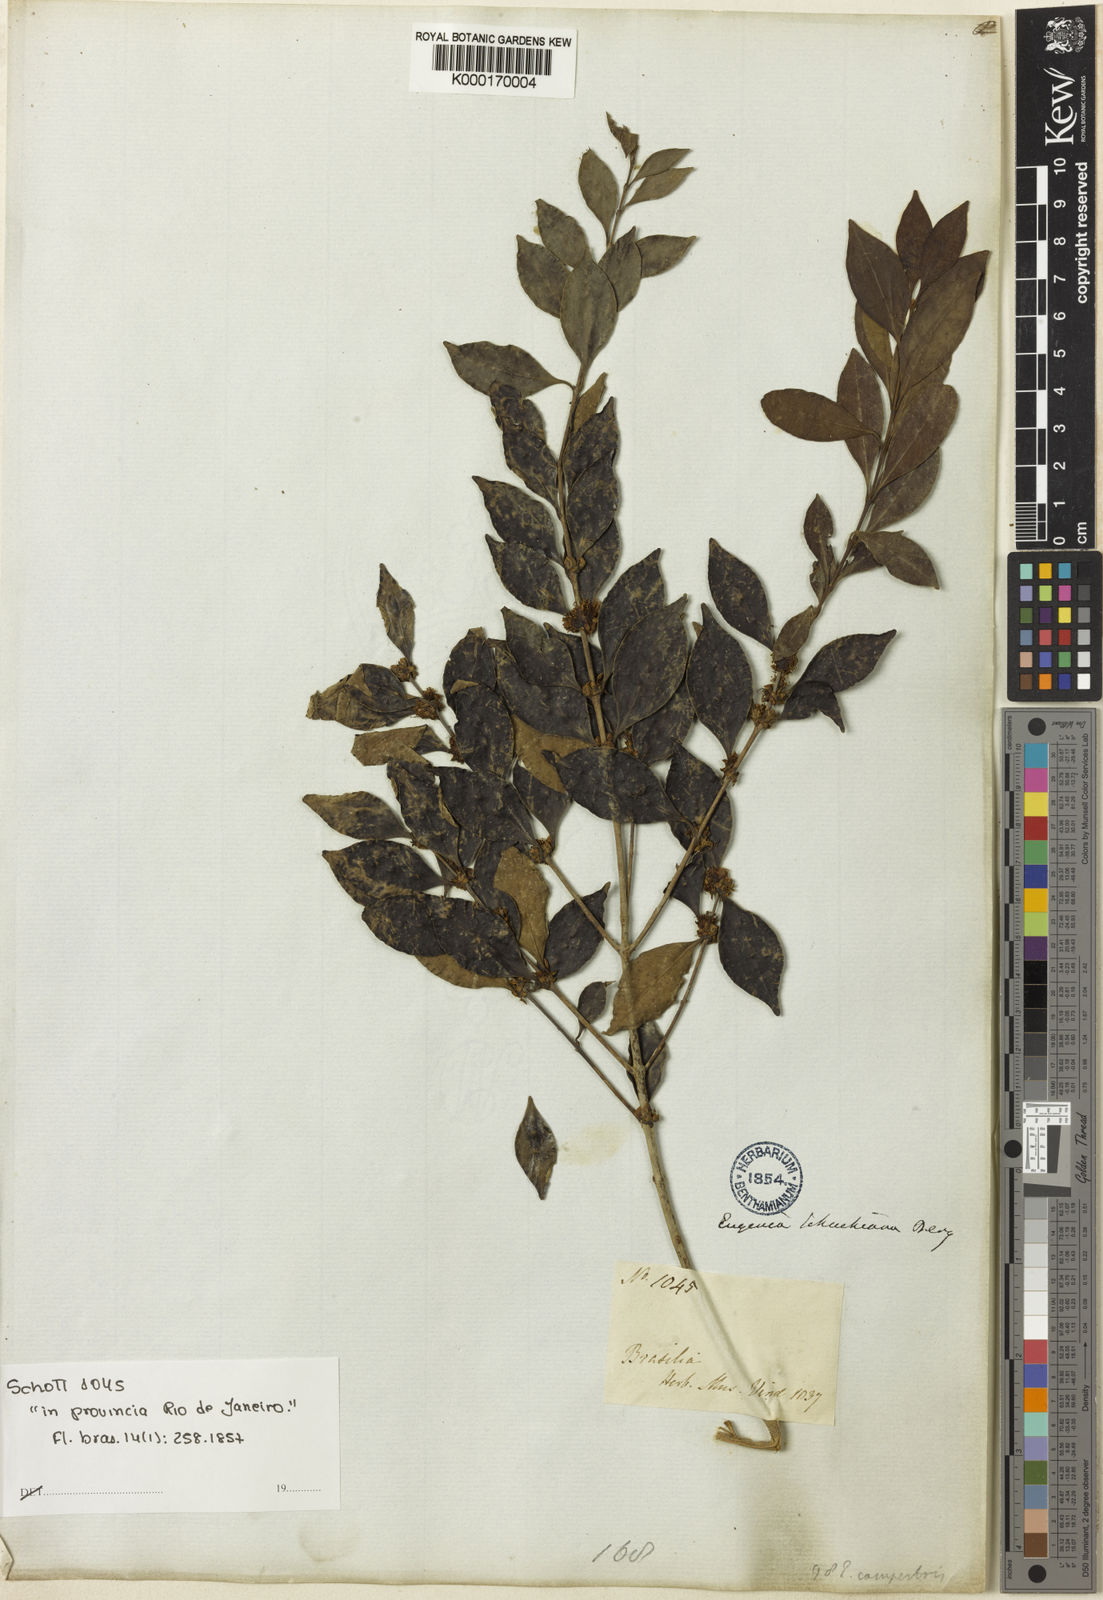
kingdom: Plantae
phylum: Tracheophyta
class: Magnoliopsida
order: Myrtales
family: Myrtaceae
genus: Eugenia
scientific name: Eugenia
